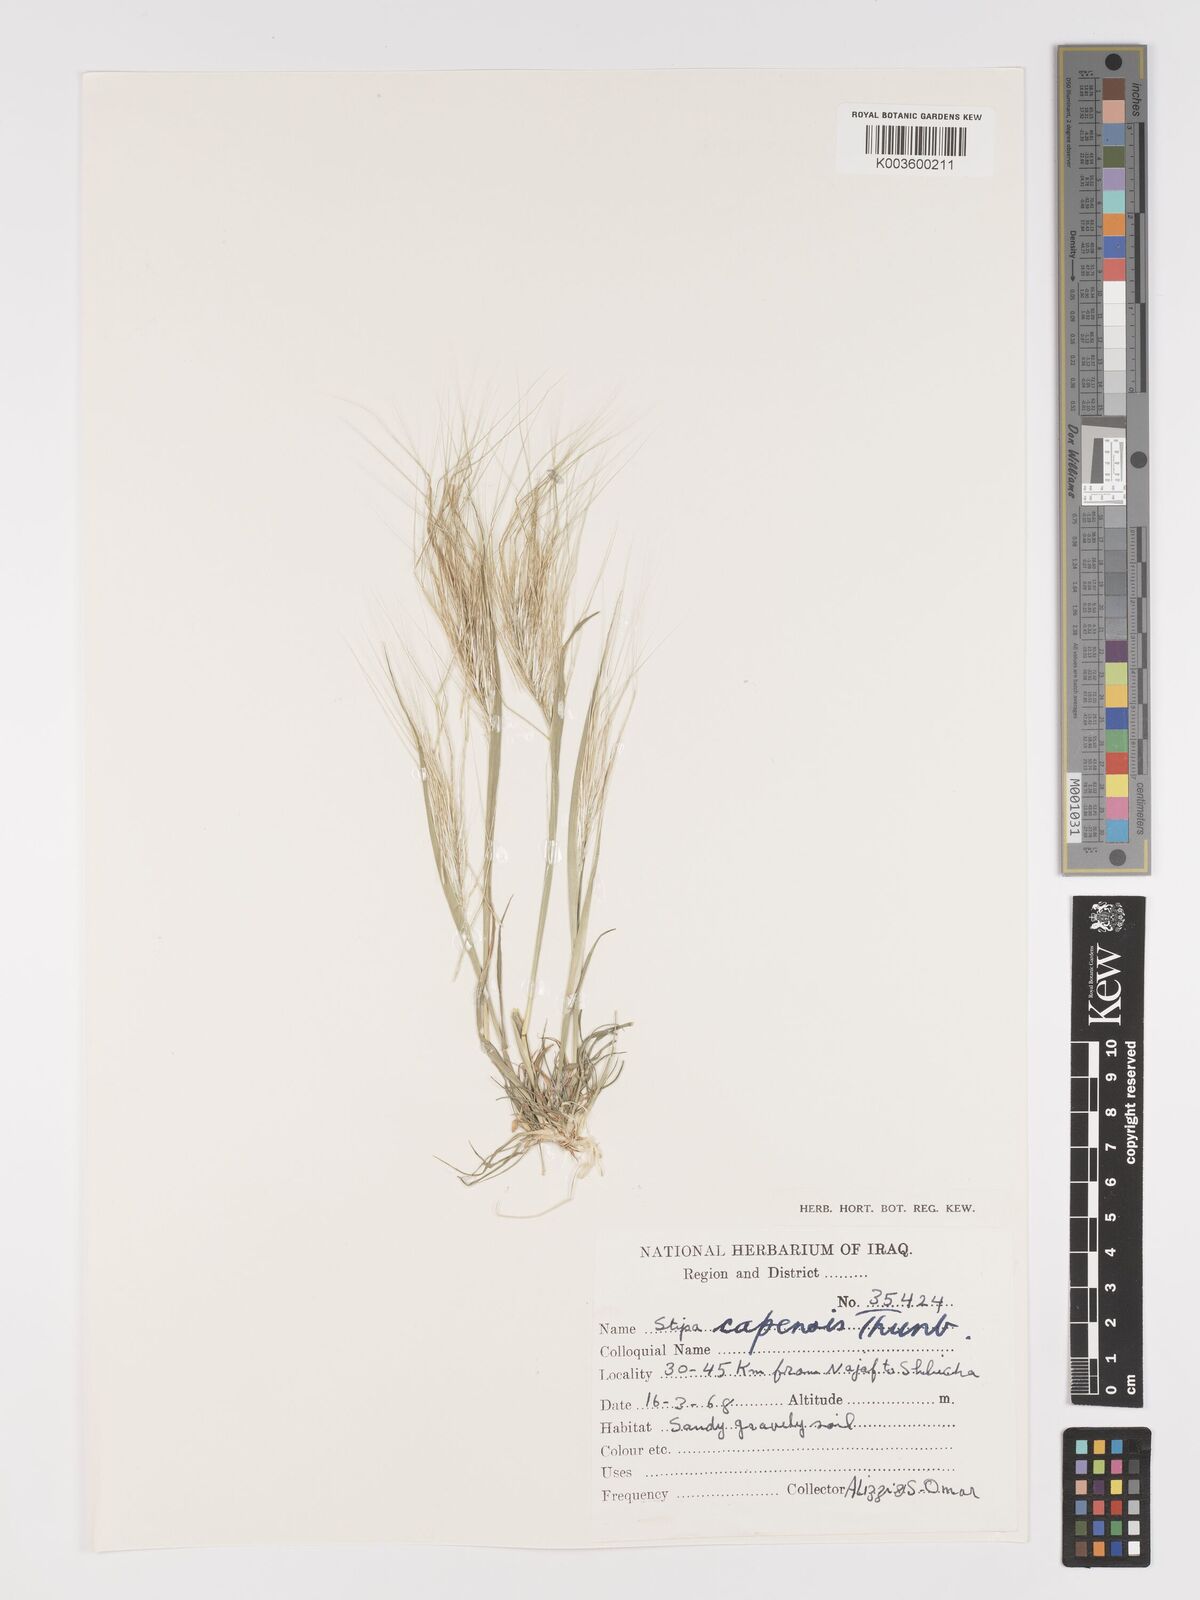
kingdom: Plantae
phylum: Tracheophyta
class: Liliopsida
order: Poales
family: Poaceae
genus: Stipellula
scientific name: Stipellula capensis
